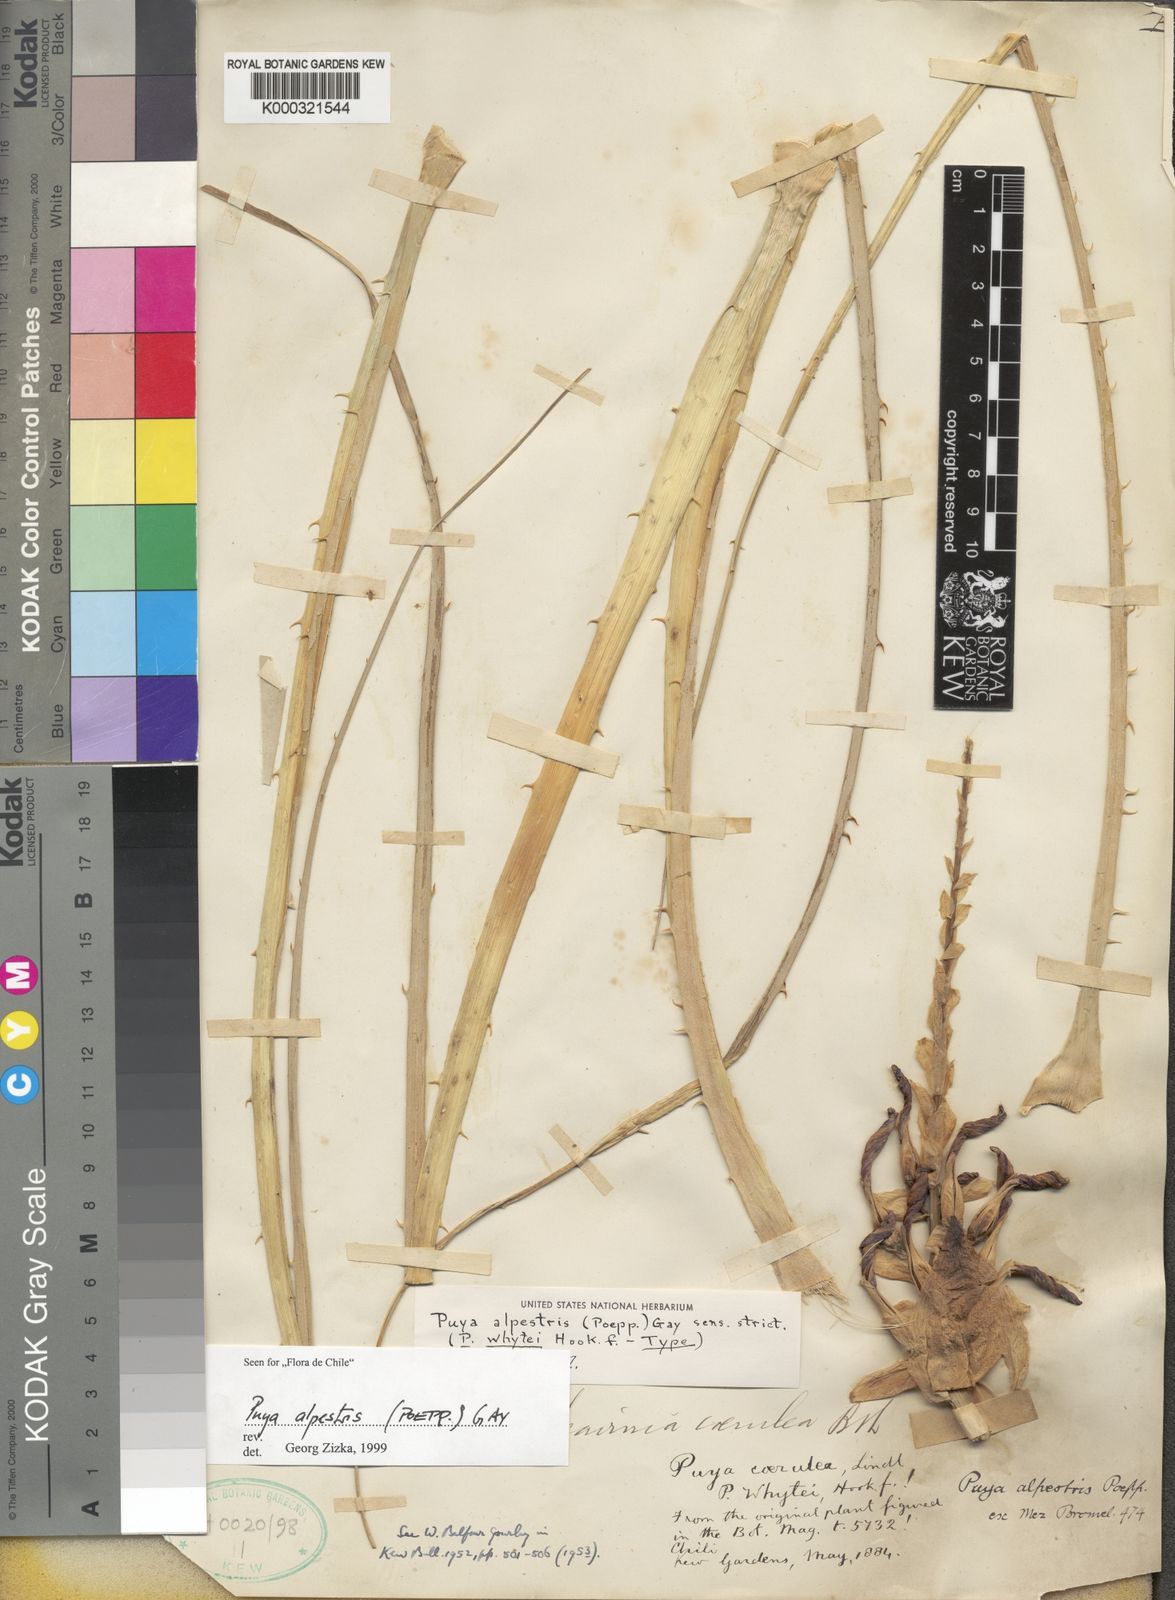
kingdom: Plantae
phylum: Tracheophyta
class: Liliopsida
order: Poales
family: Bromeliaceae
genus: Puya
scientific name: Puya alpestris
